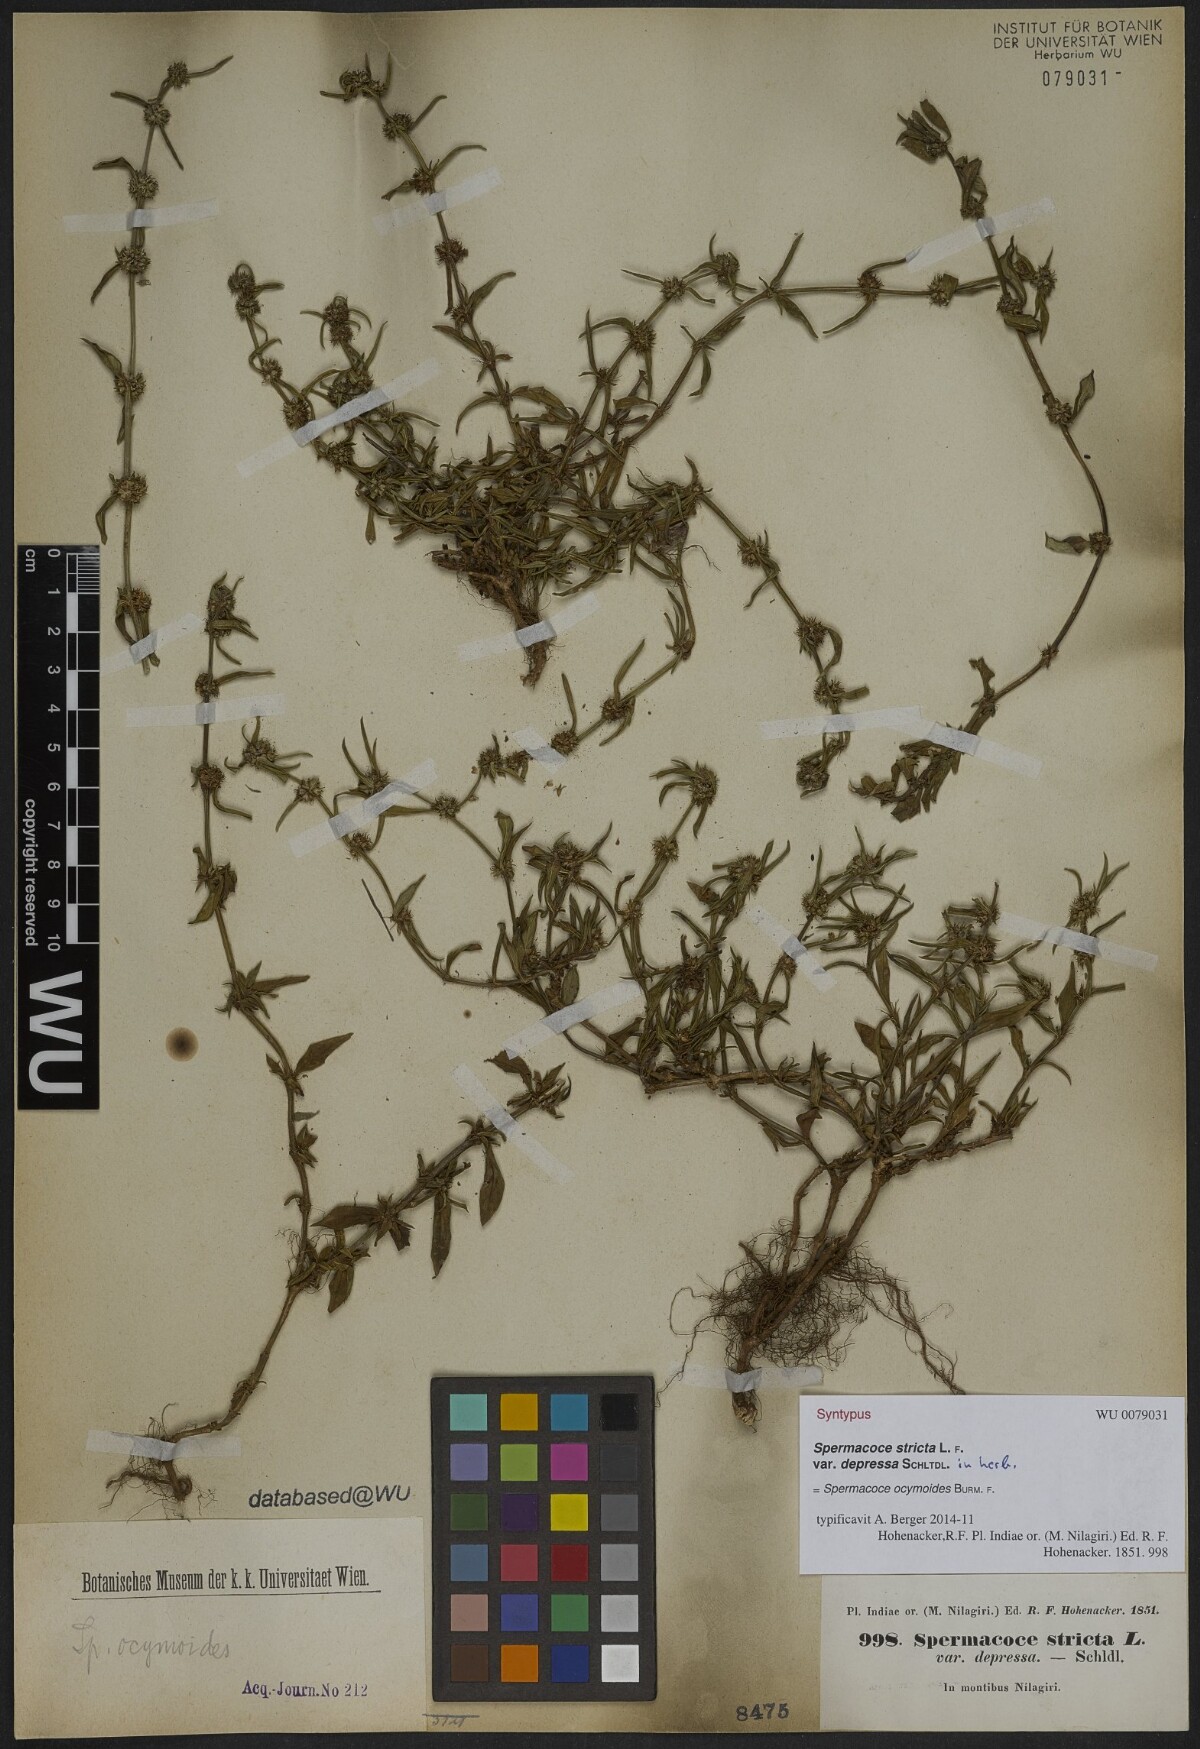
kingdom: Plantae
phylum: Tracheophyta
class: Magnoliopsida
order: Gentianales
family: Rubiaceae
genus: Spermacoce
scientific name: Spermacoce stricta
